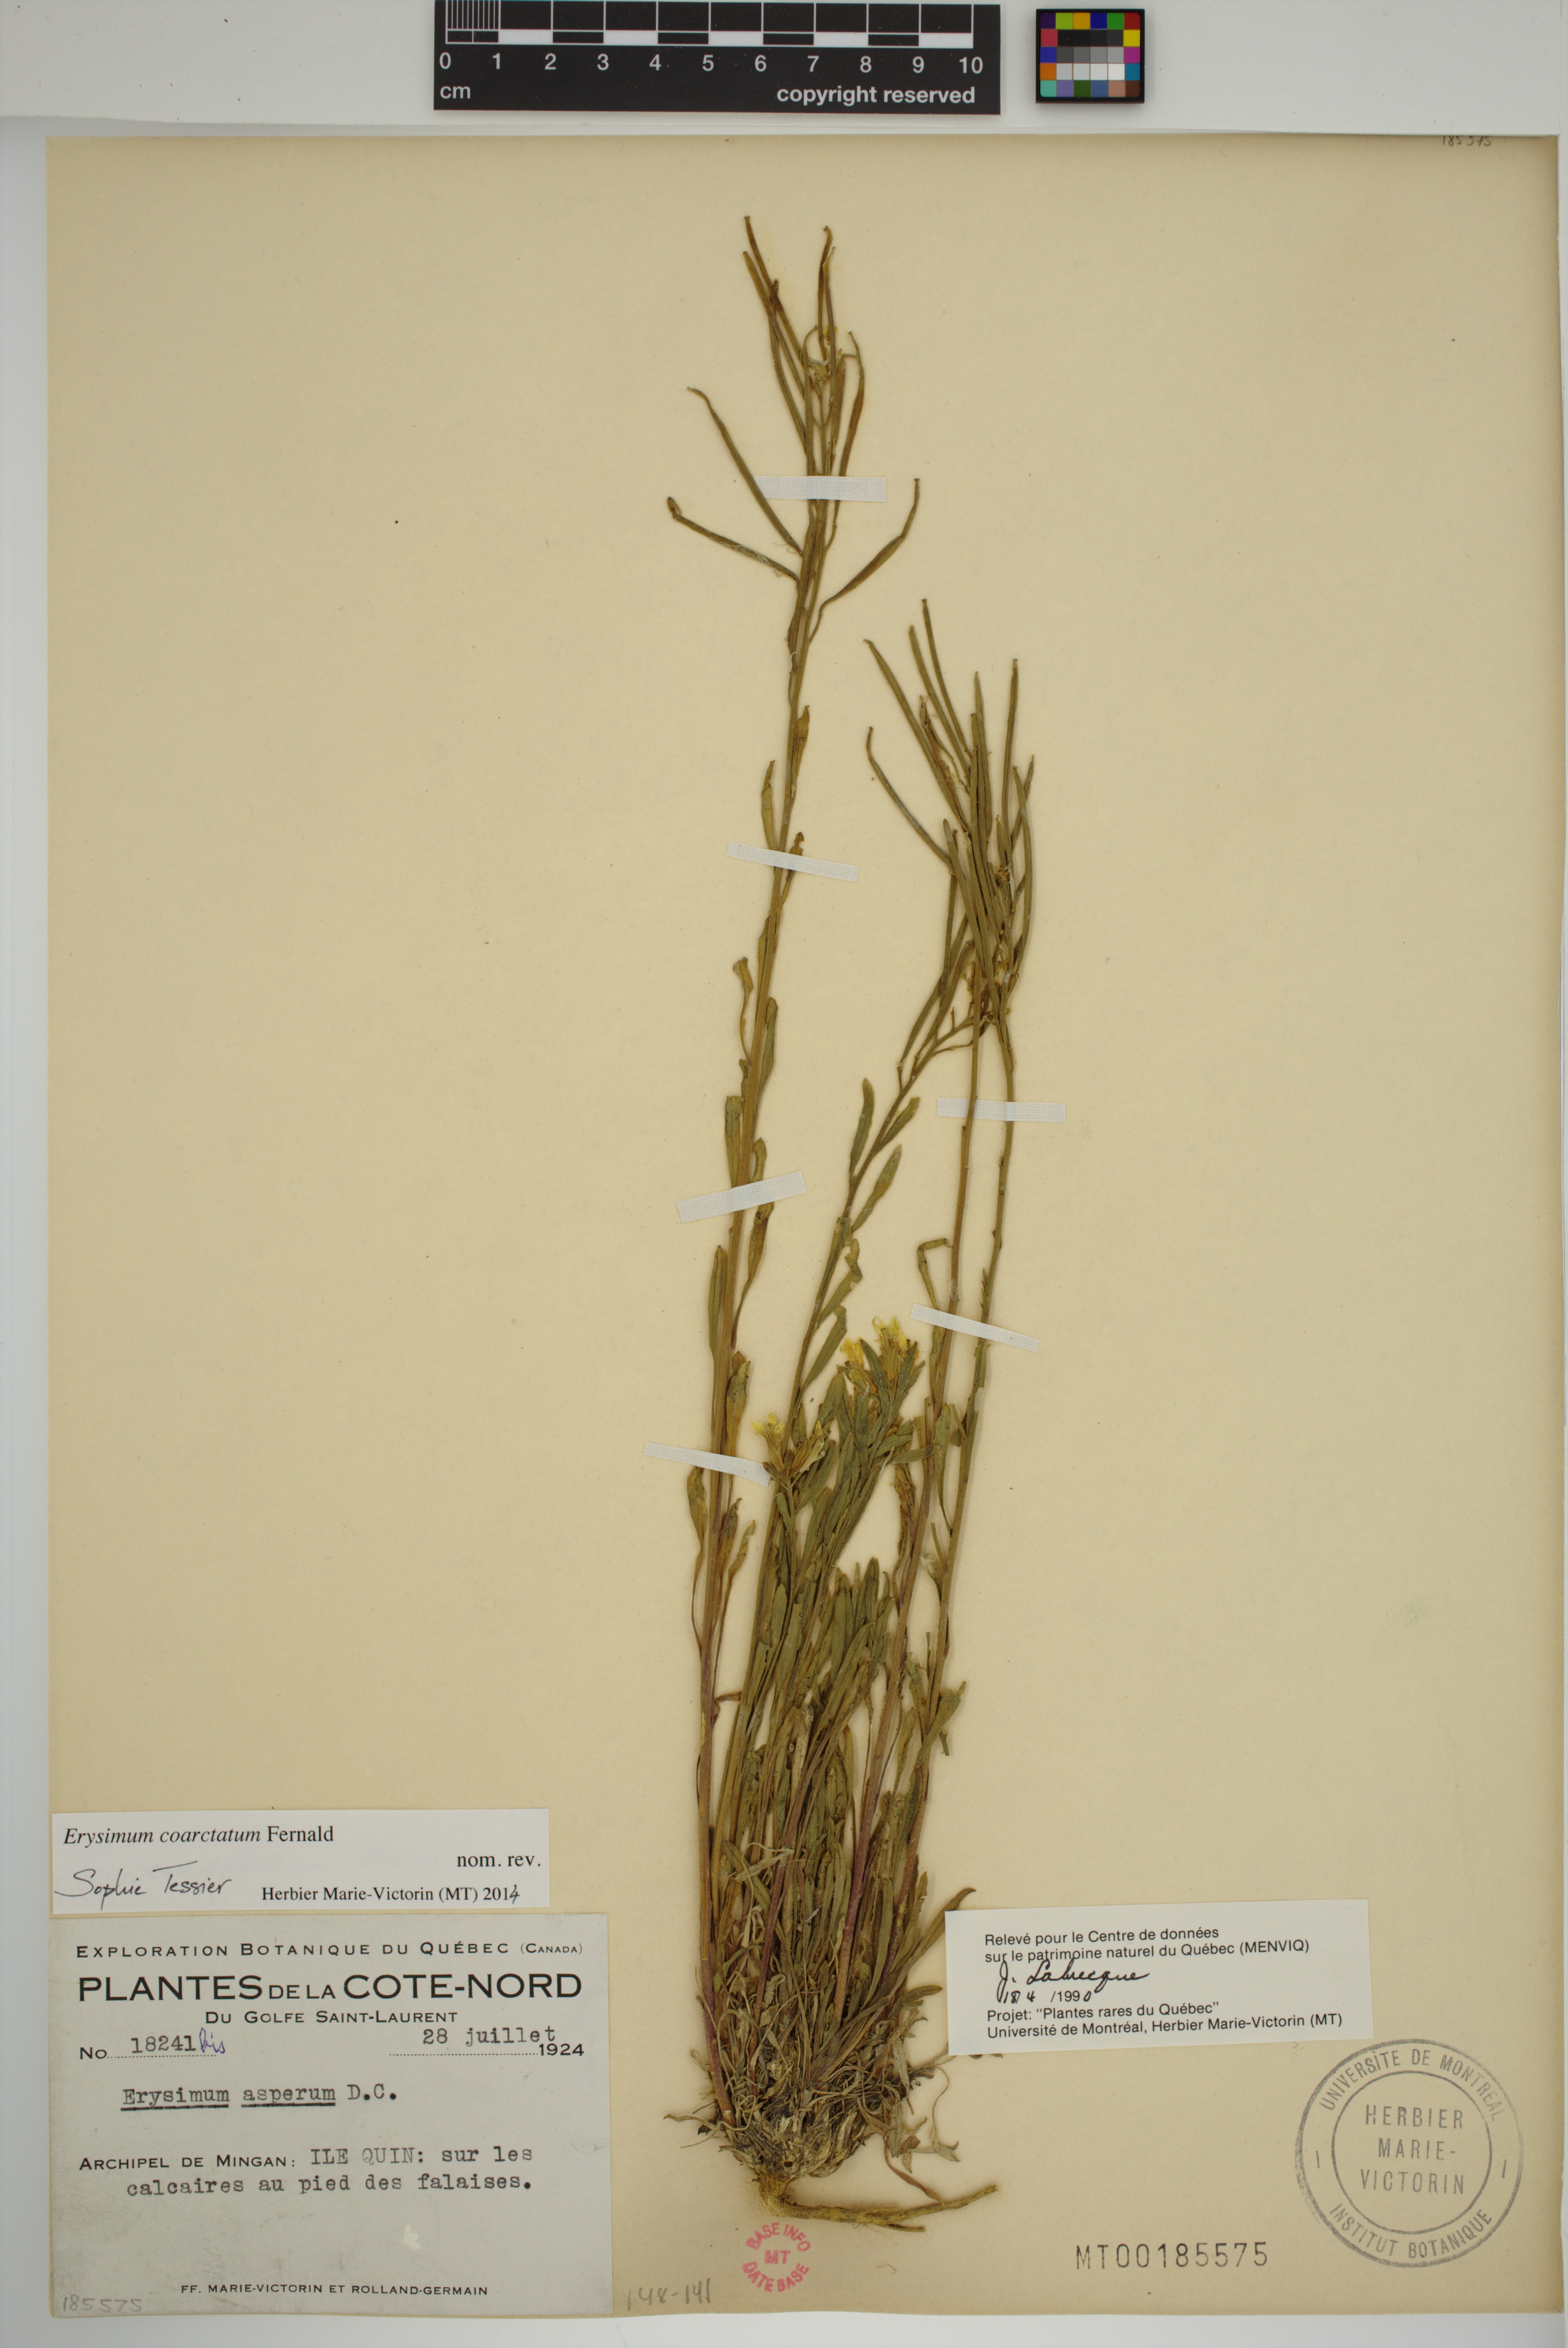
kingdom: Plantae
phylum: Tracheophyta
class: Magnoliopsida
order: Brassicales
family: Brassicaceae
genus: Erysimum
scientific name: Erysimum coarctatum
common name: Gulf of st. lawrence wormseed mustard
